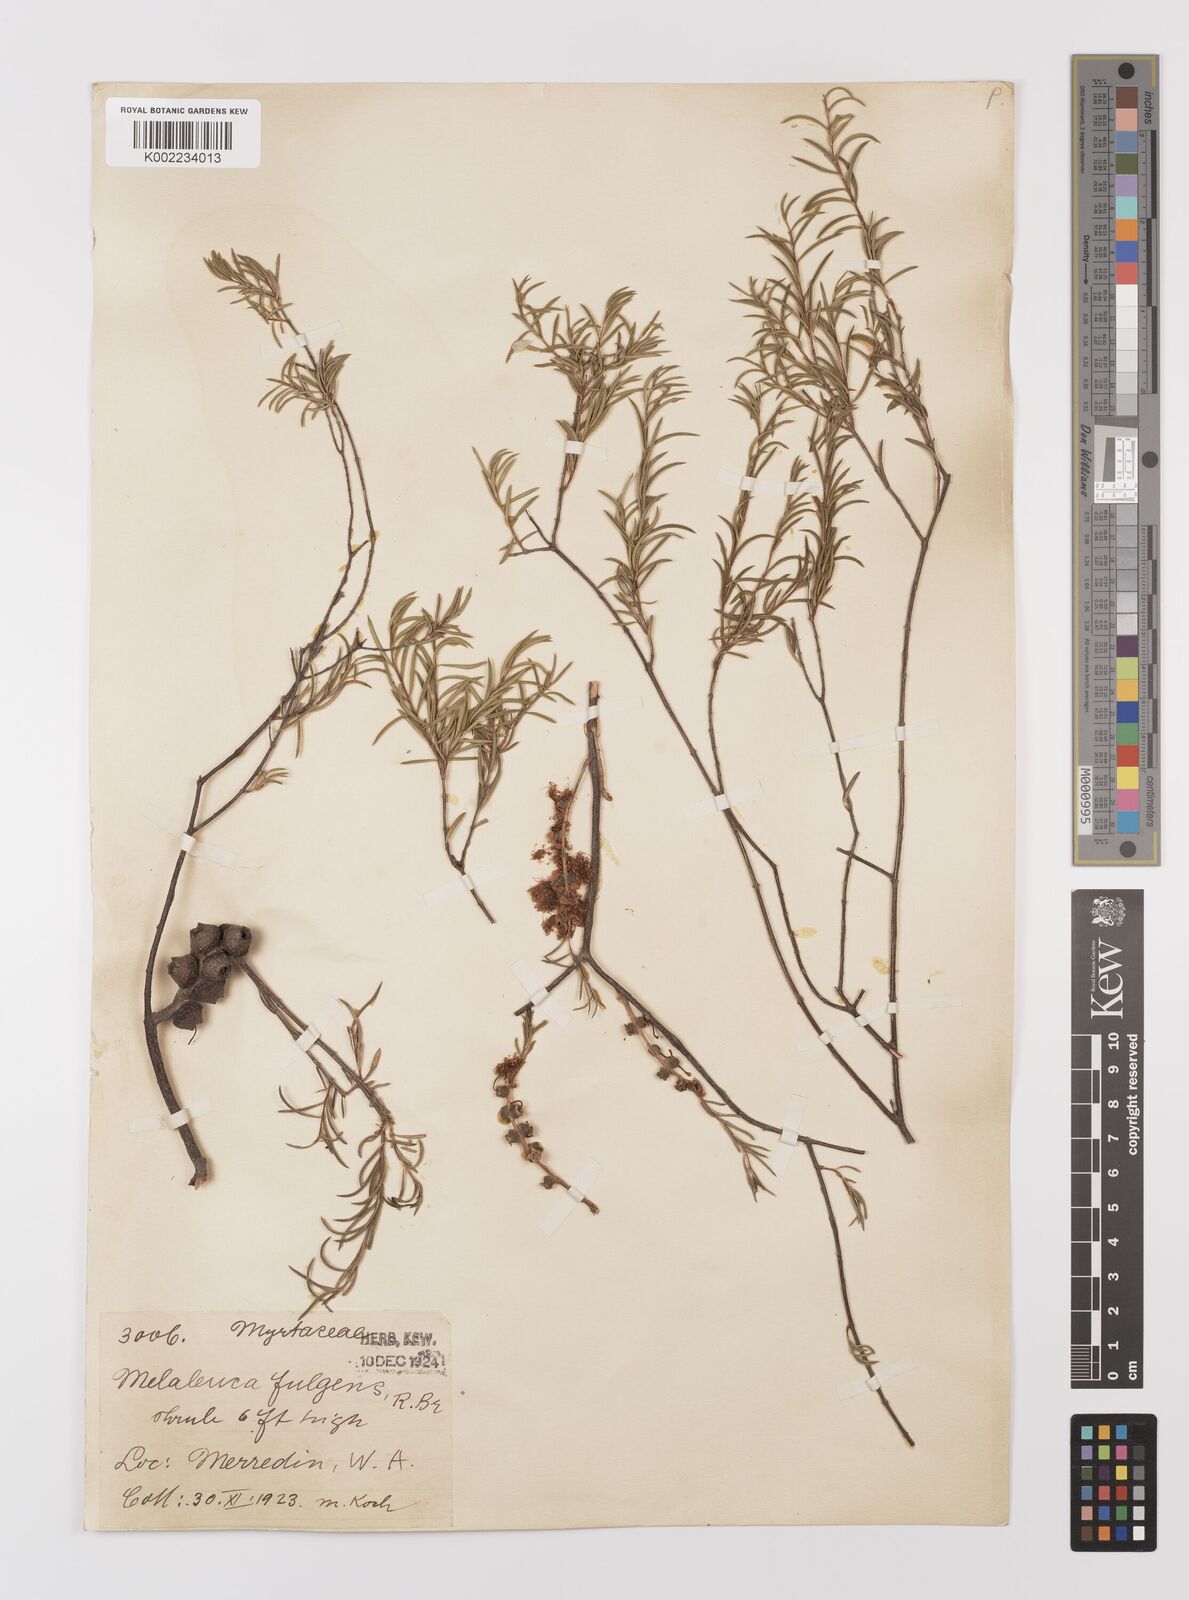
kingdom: Plantae
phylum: Tracheophyta
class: Magnoliopsida
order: Myrtales
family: Myrtaceae
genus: Melaleuca
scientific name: Melaleuca fulgens
